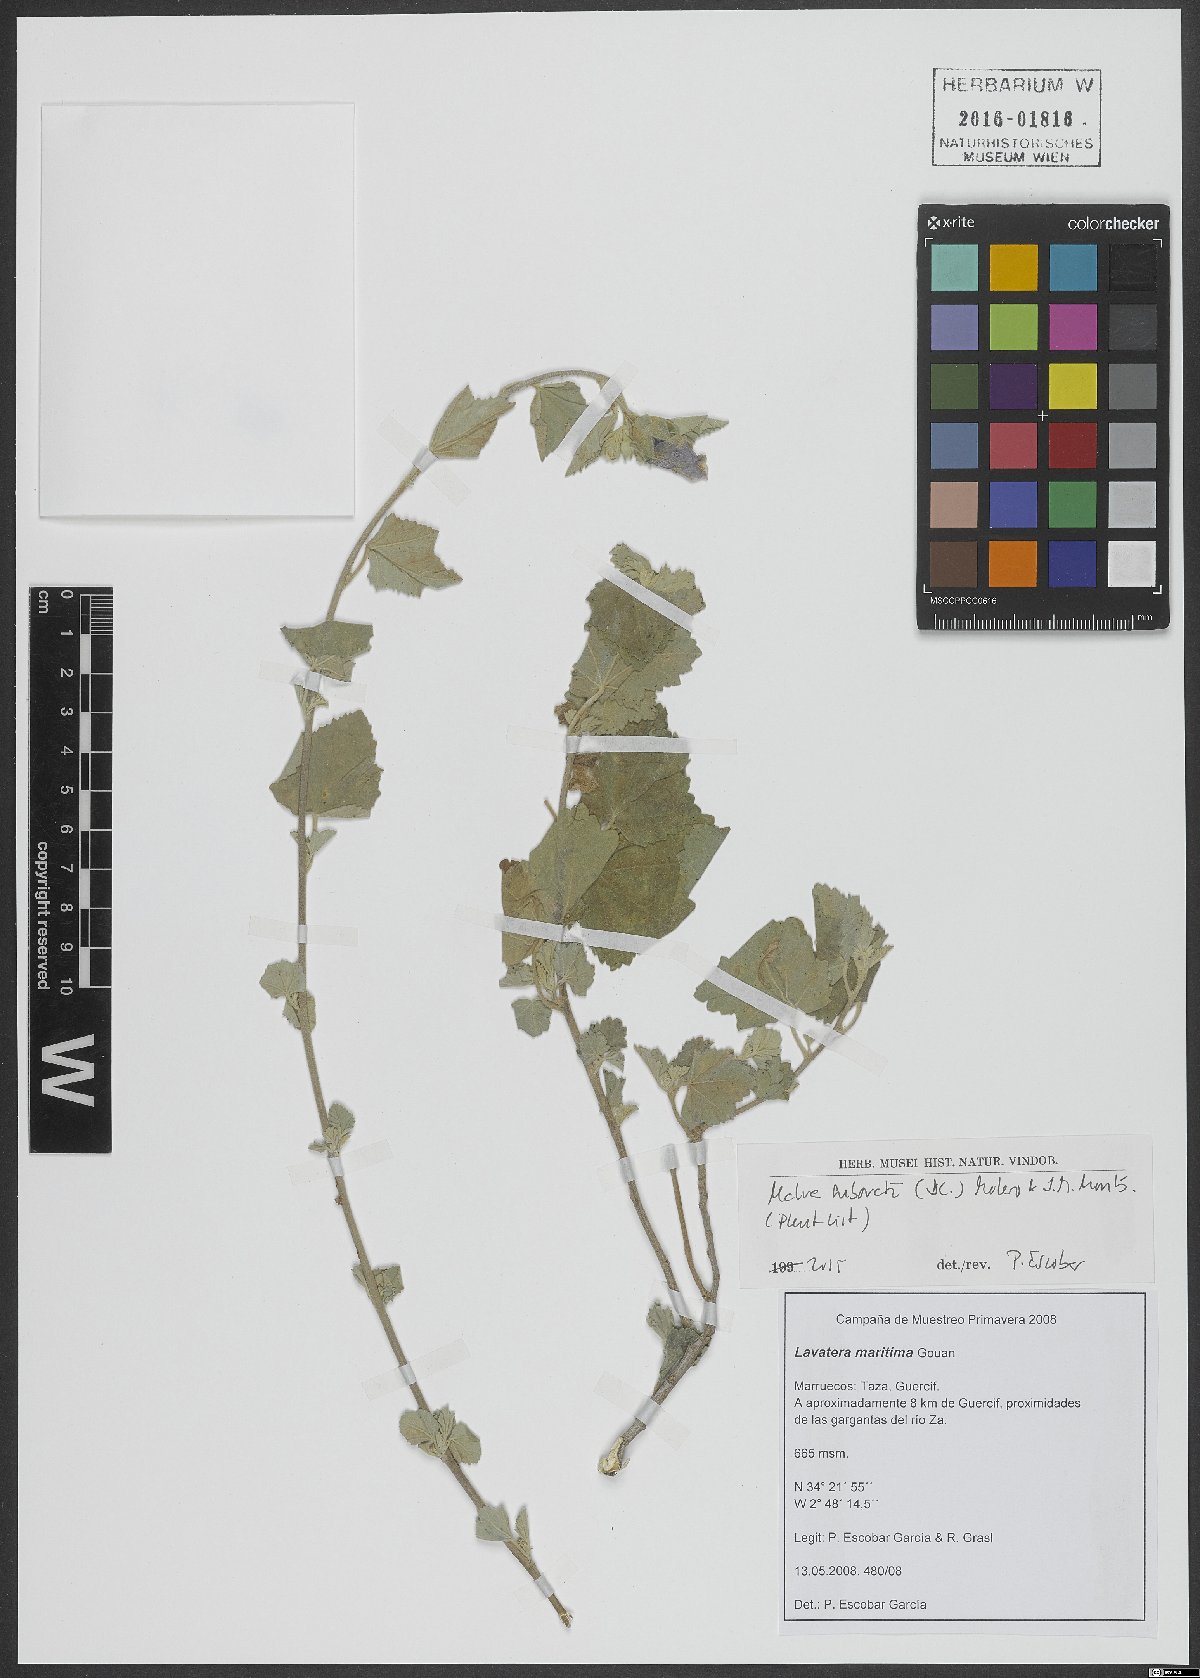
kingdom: Plantae
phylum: Tracheophyta
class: Magnoliopsida
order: Malvales
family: Malvaceae
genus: Malva
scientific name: Malva subovata
